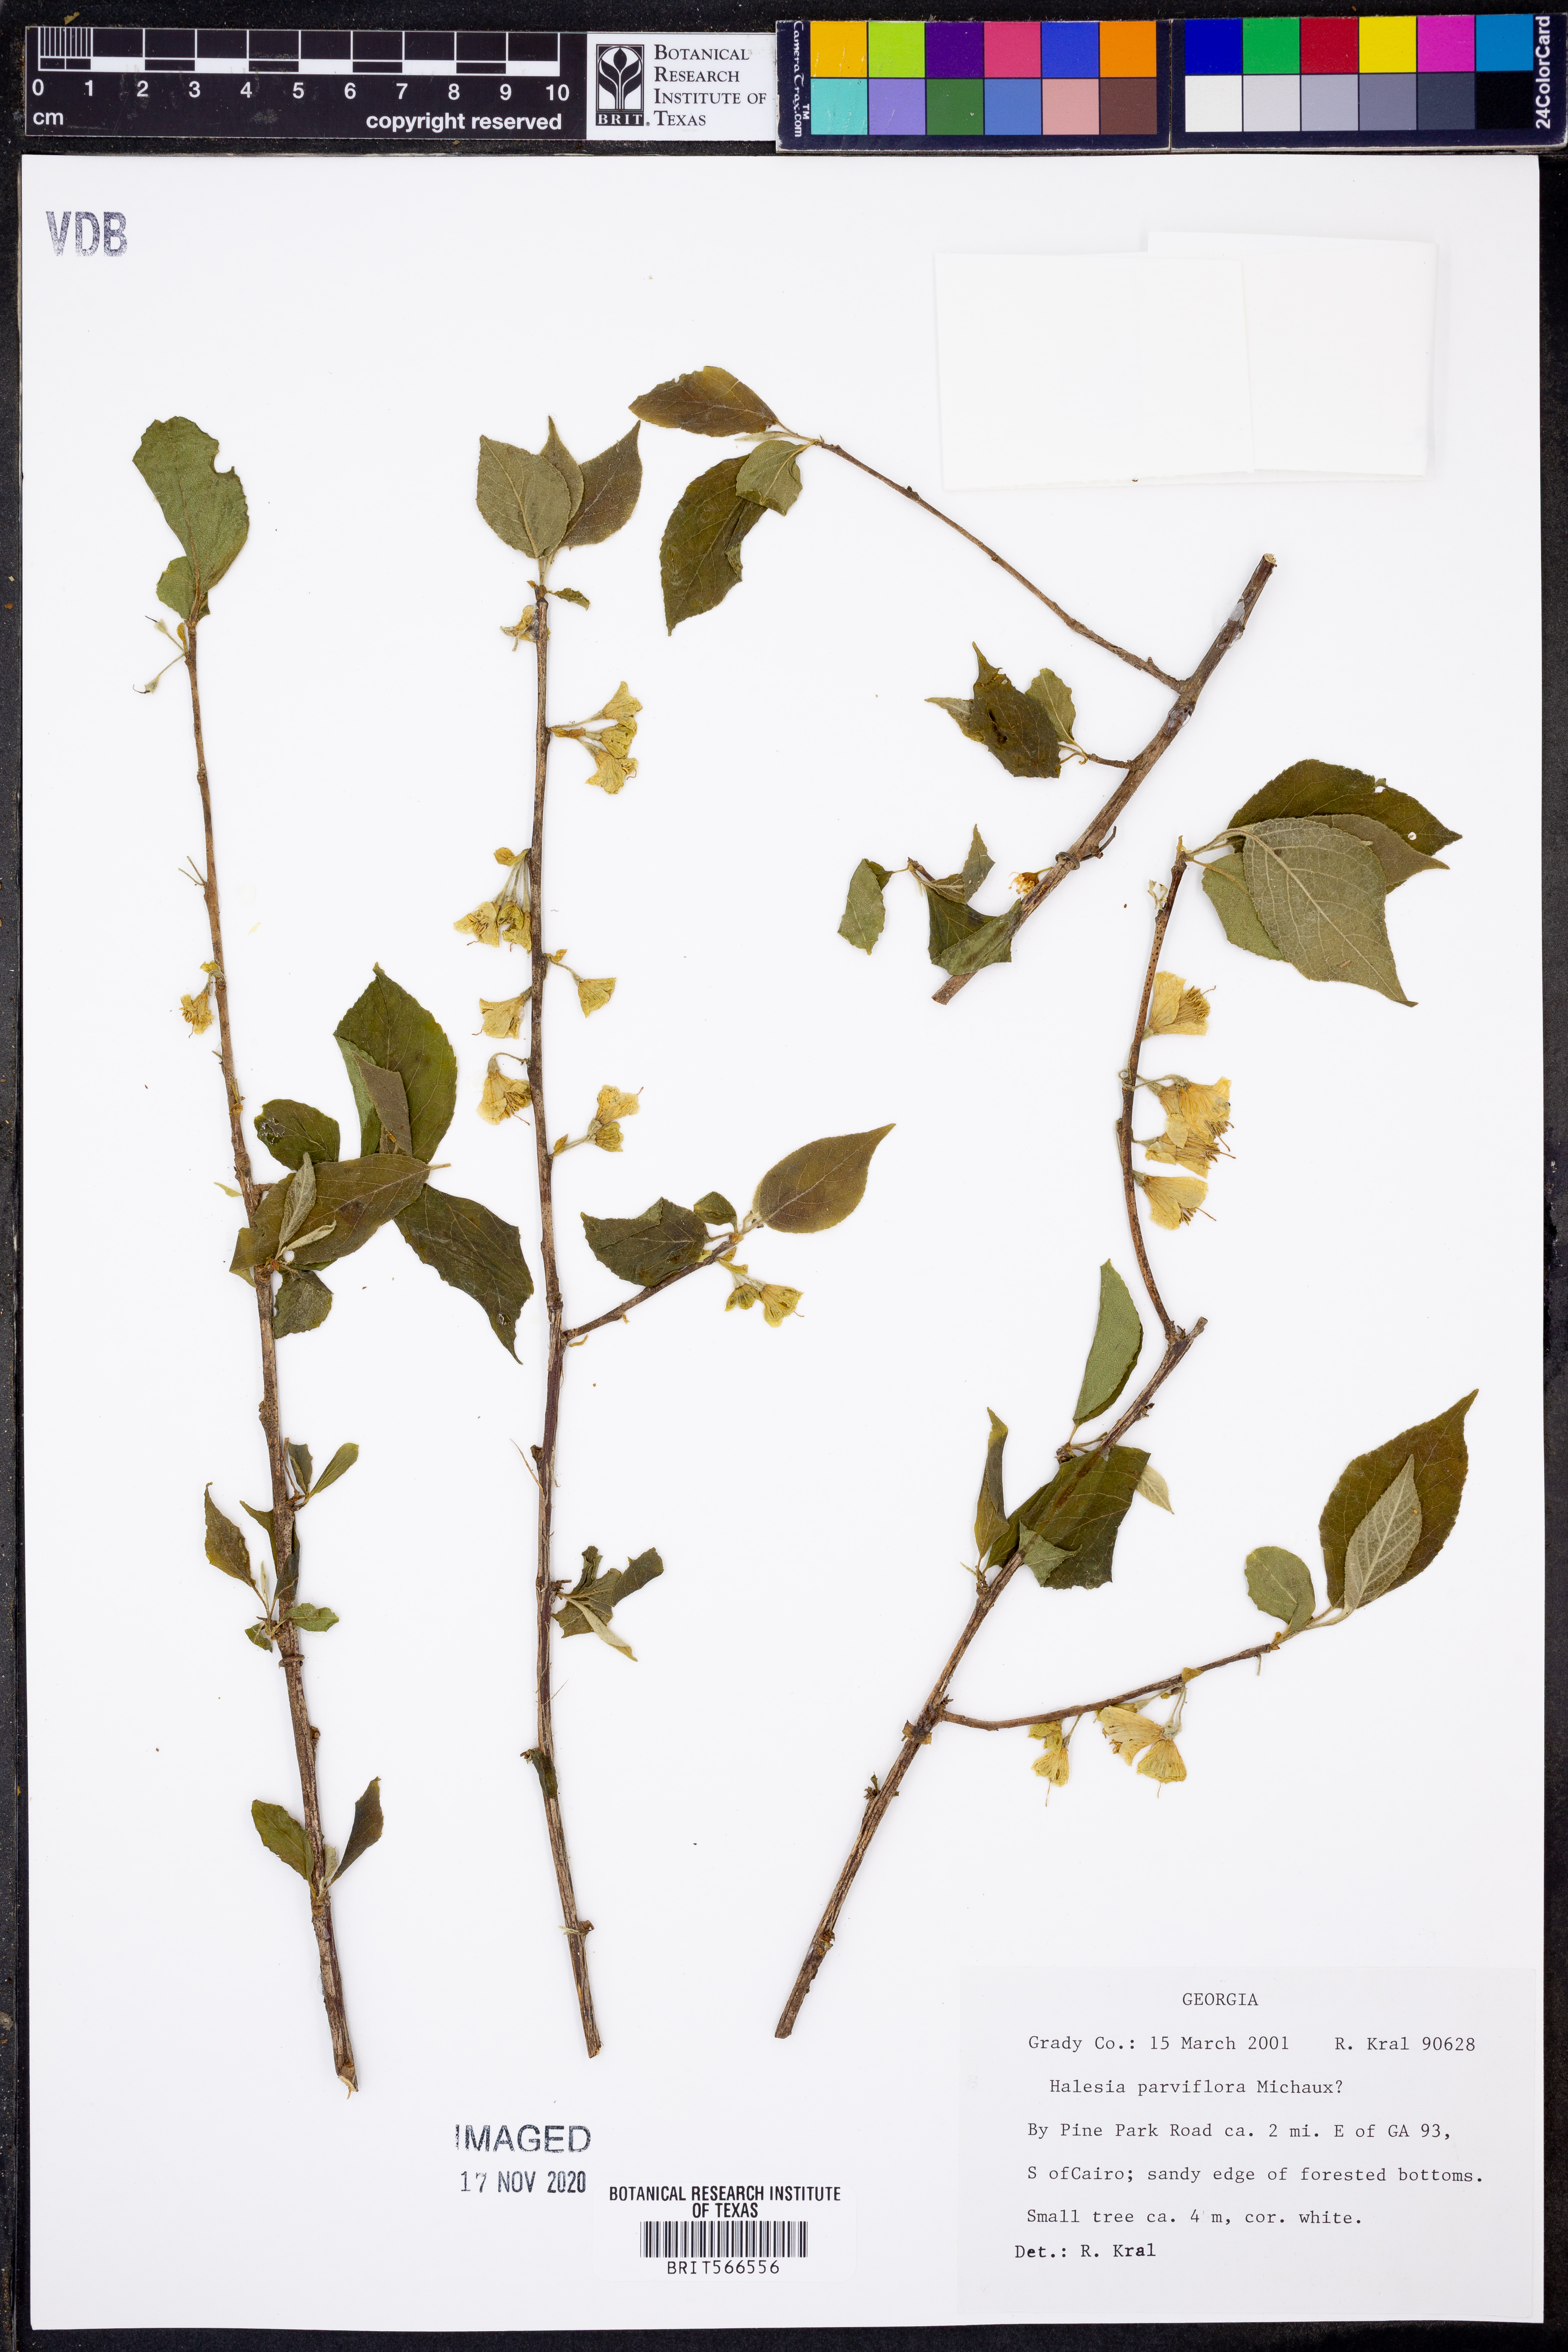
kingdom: Plantae
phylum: Tracheophyta
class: Magnoliopsida
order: Ericales
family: Styracaceae
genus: Halesia
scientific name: Halesia carolina
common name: Carolina silverbell
